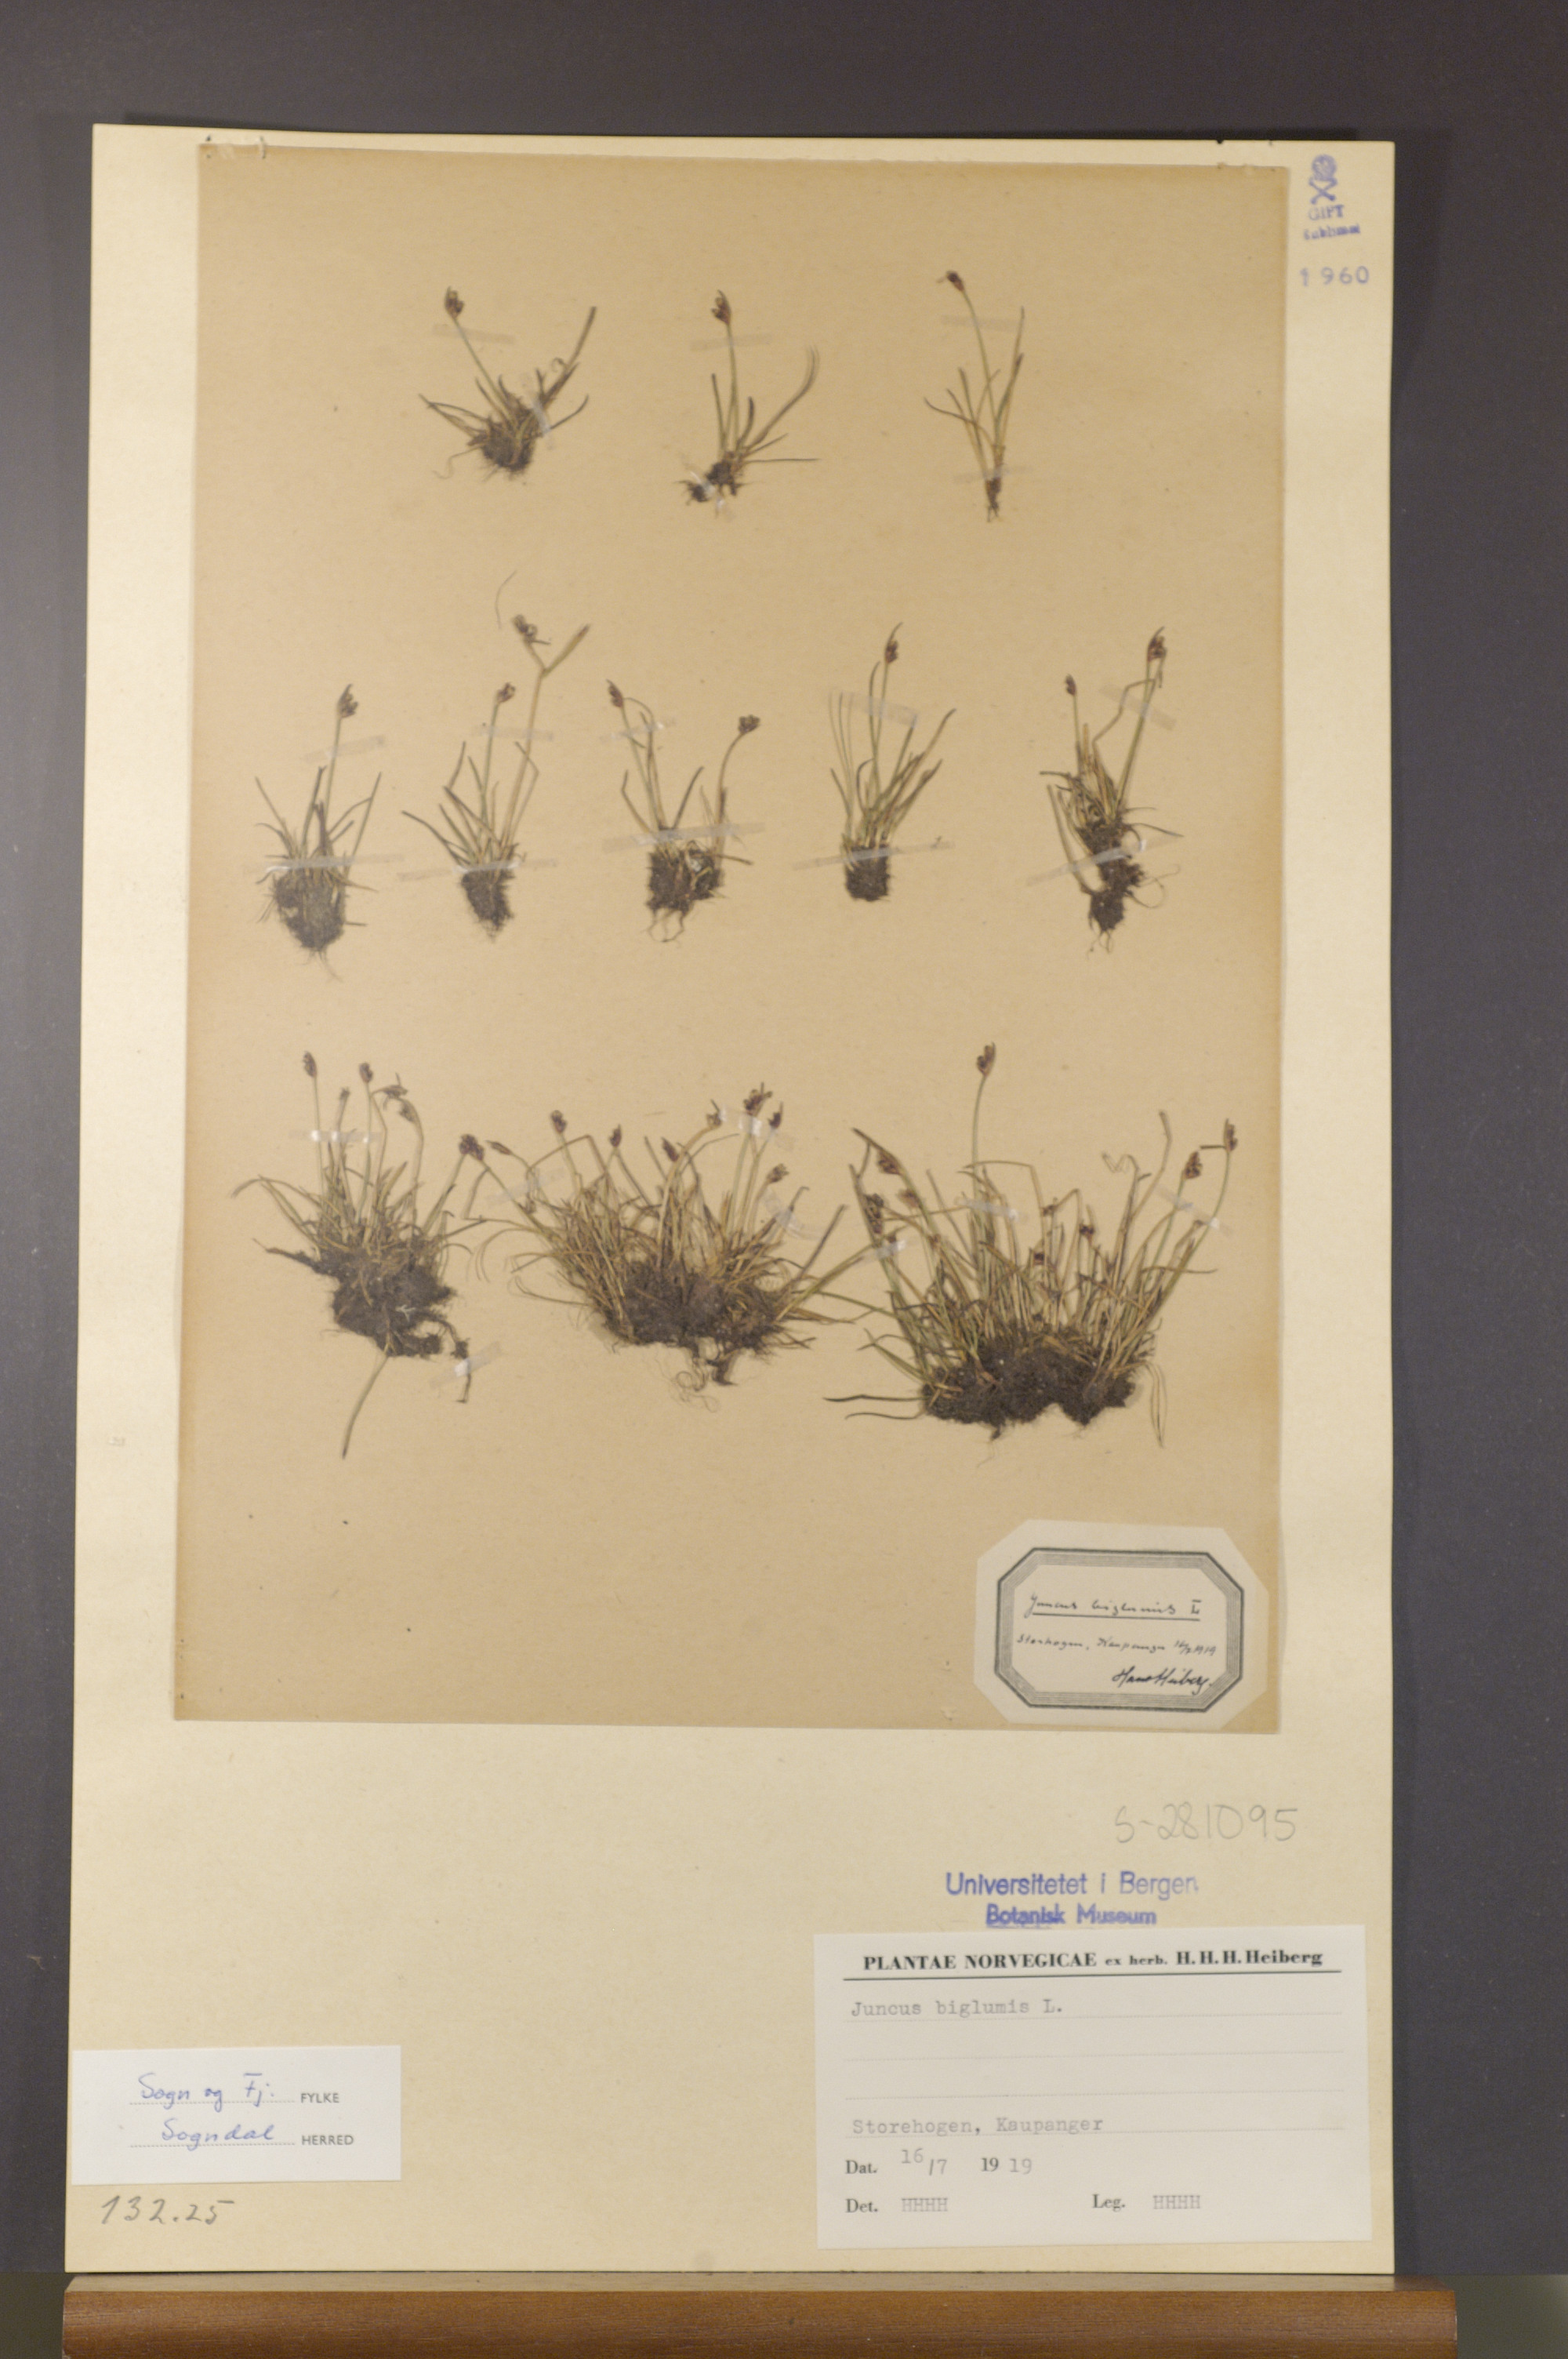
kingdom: Plantae
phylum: Tracheophyta
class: Liliopsida
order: Poales
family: Juncaceae
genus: Juncus
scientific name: Juncus biglumis
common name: Two-flowered rush
